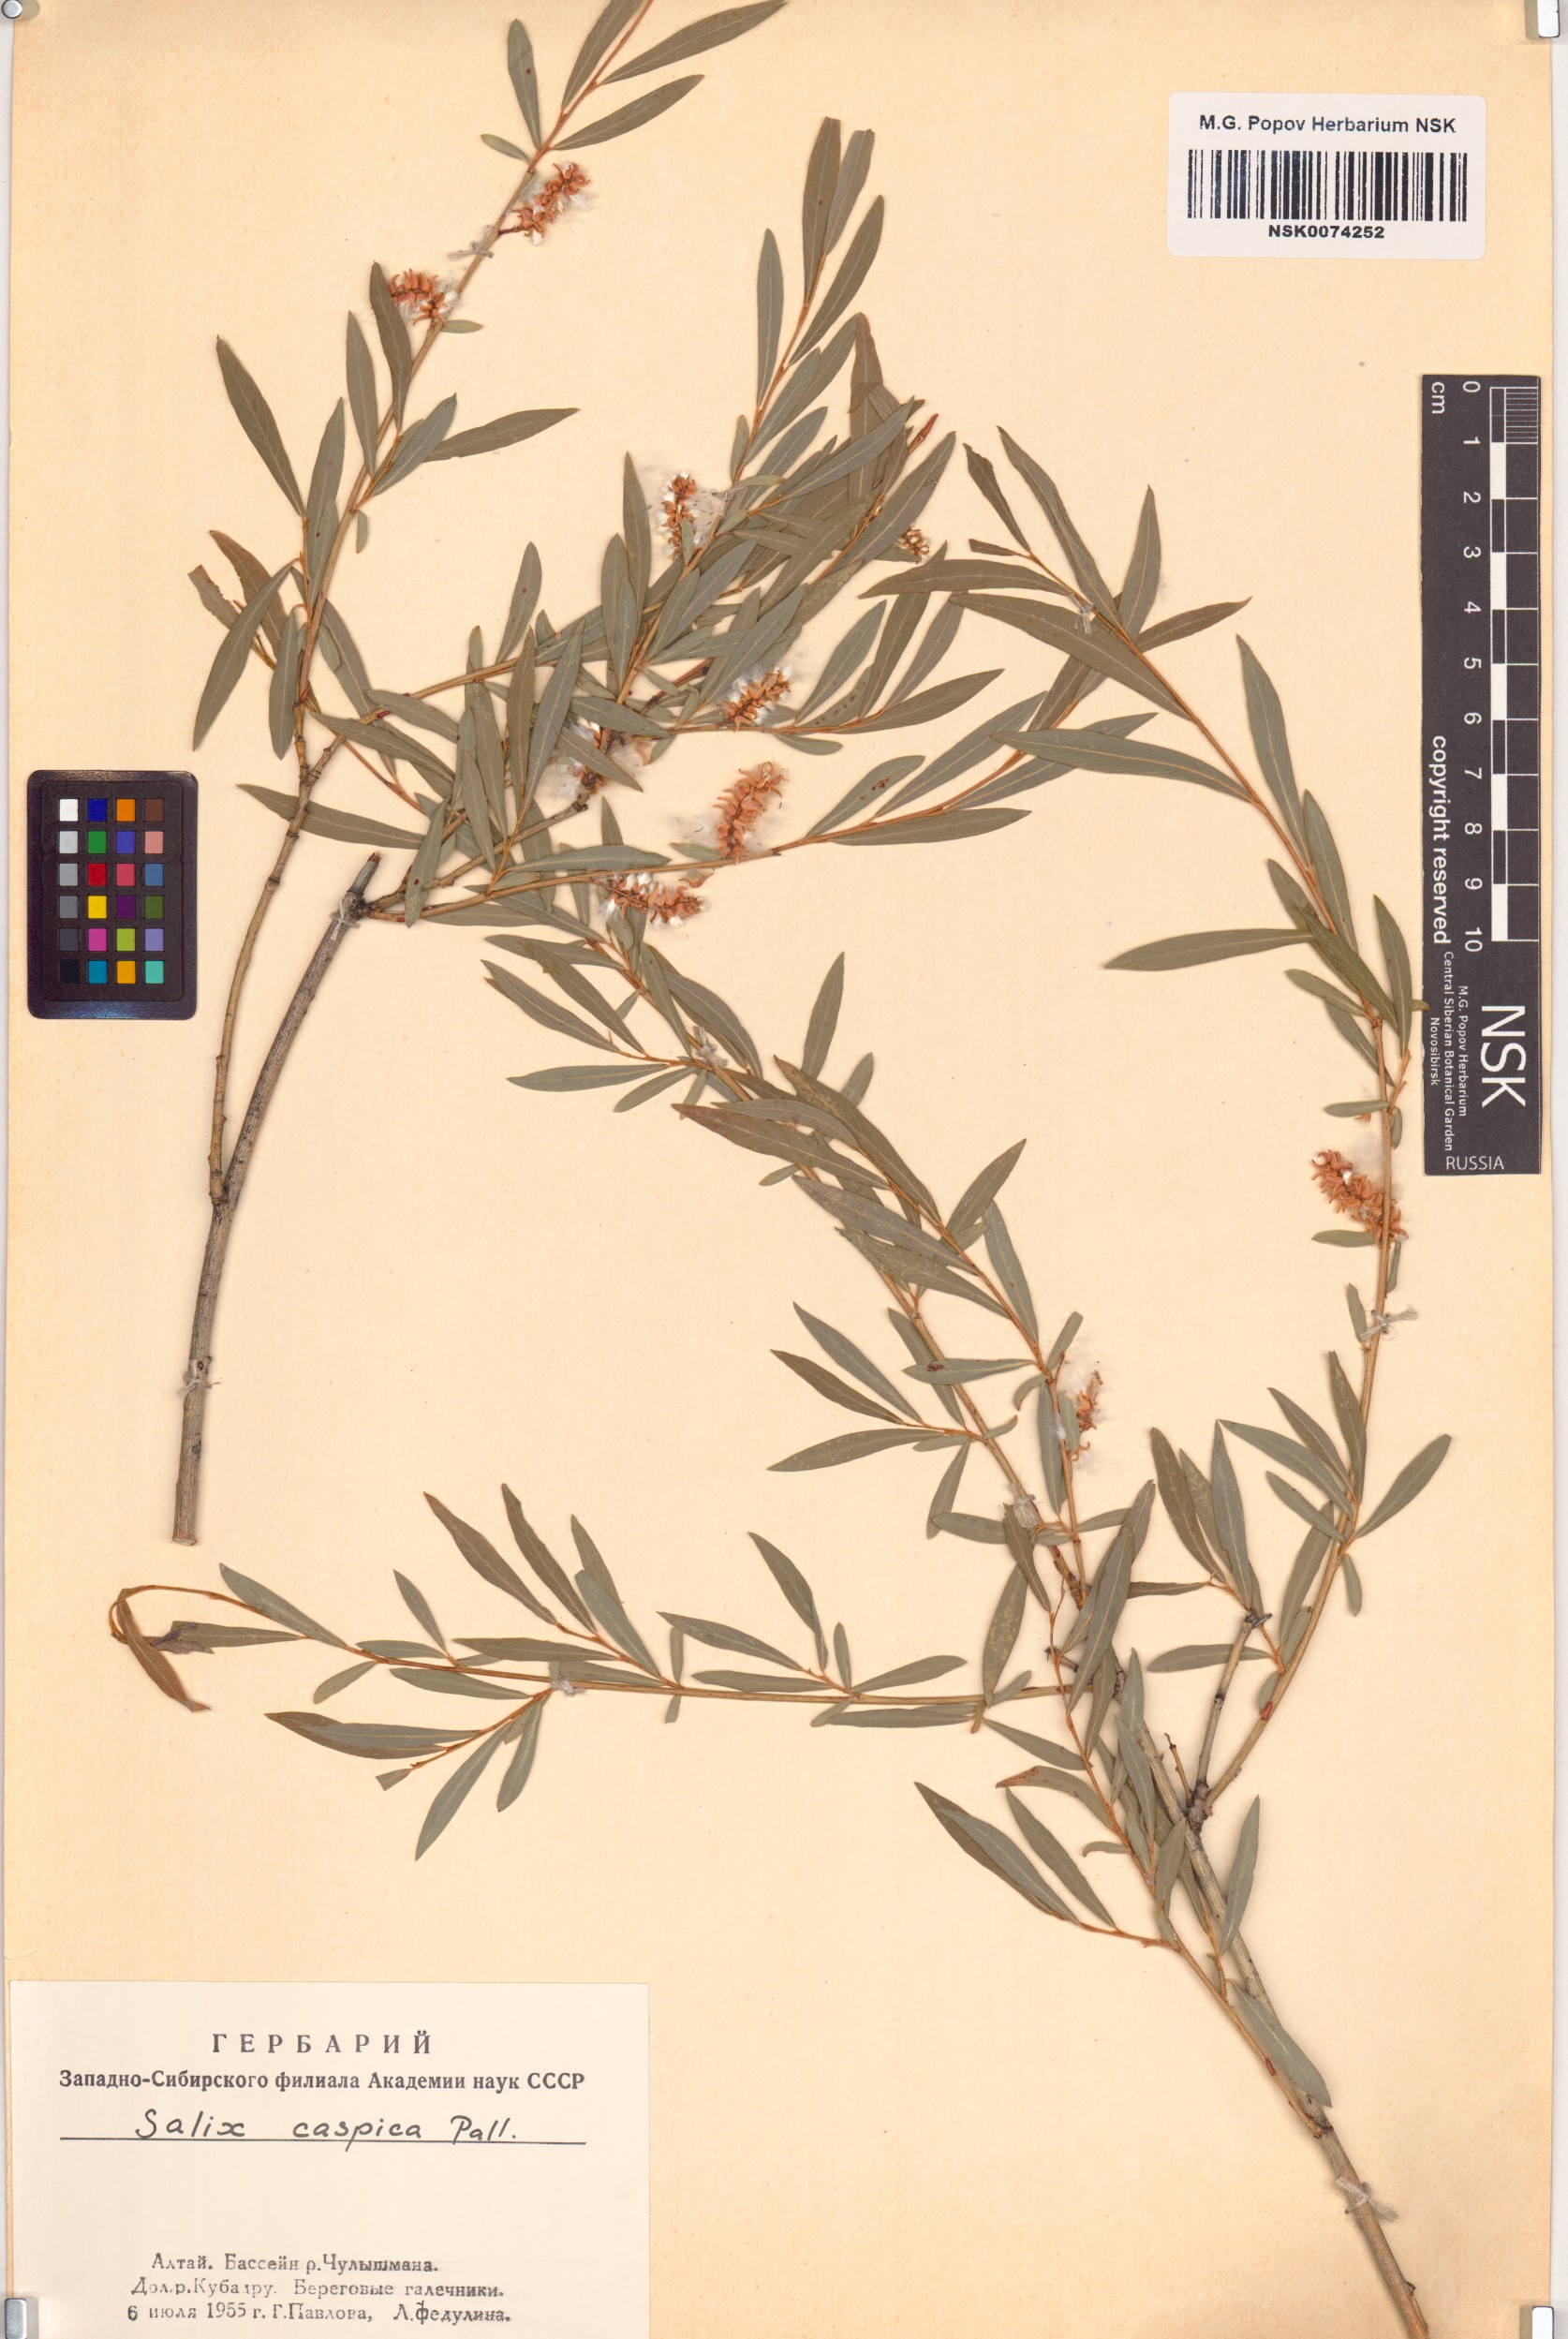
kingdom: Plantae
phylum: Tracheophyta
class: Magnoliopsida
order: Malpighiales
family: Salicaceae
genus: Salix
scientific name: Salix caspica
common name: Caspian willow
